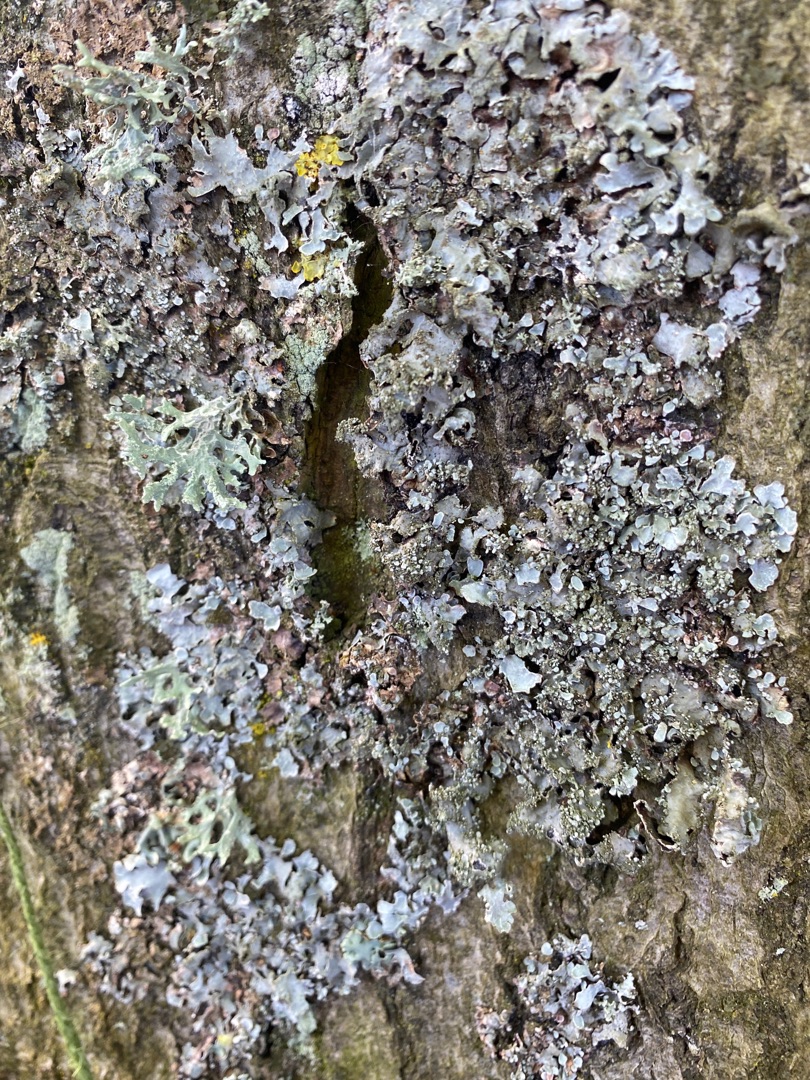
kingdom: Fungi
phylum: Ascomycota
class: Lecanoromycetes
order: Lecanorales
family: Parmeliaceae
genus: Parmelia
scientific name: Parmelia
